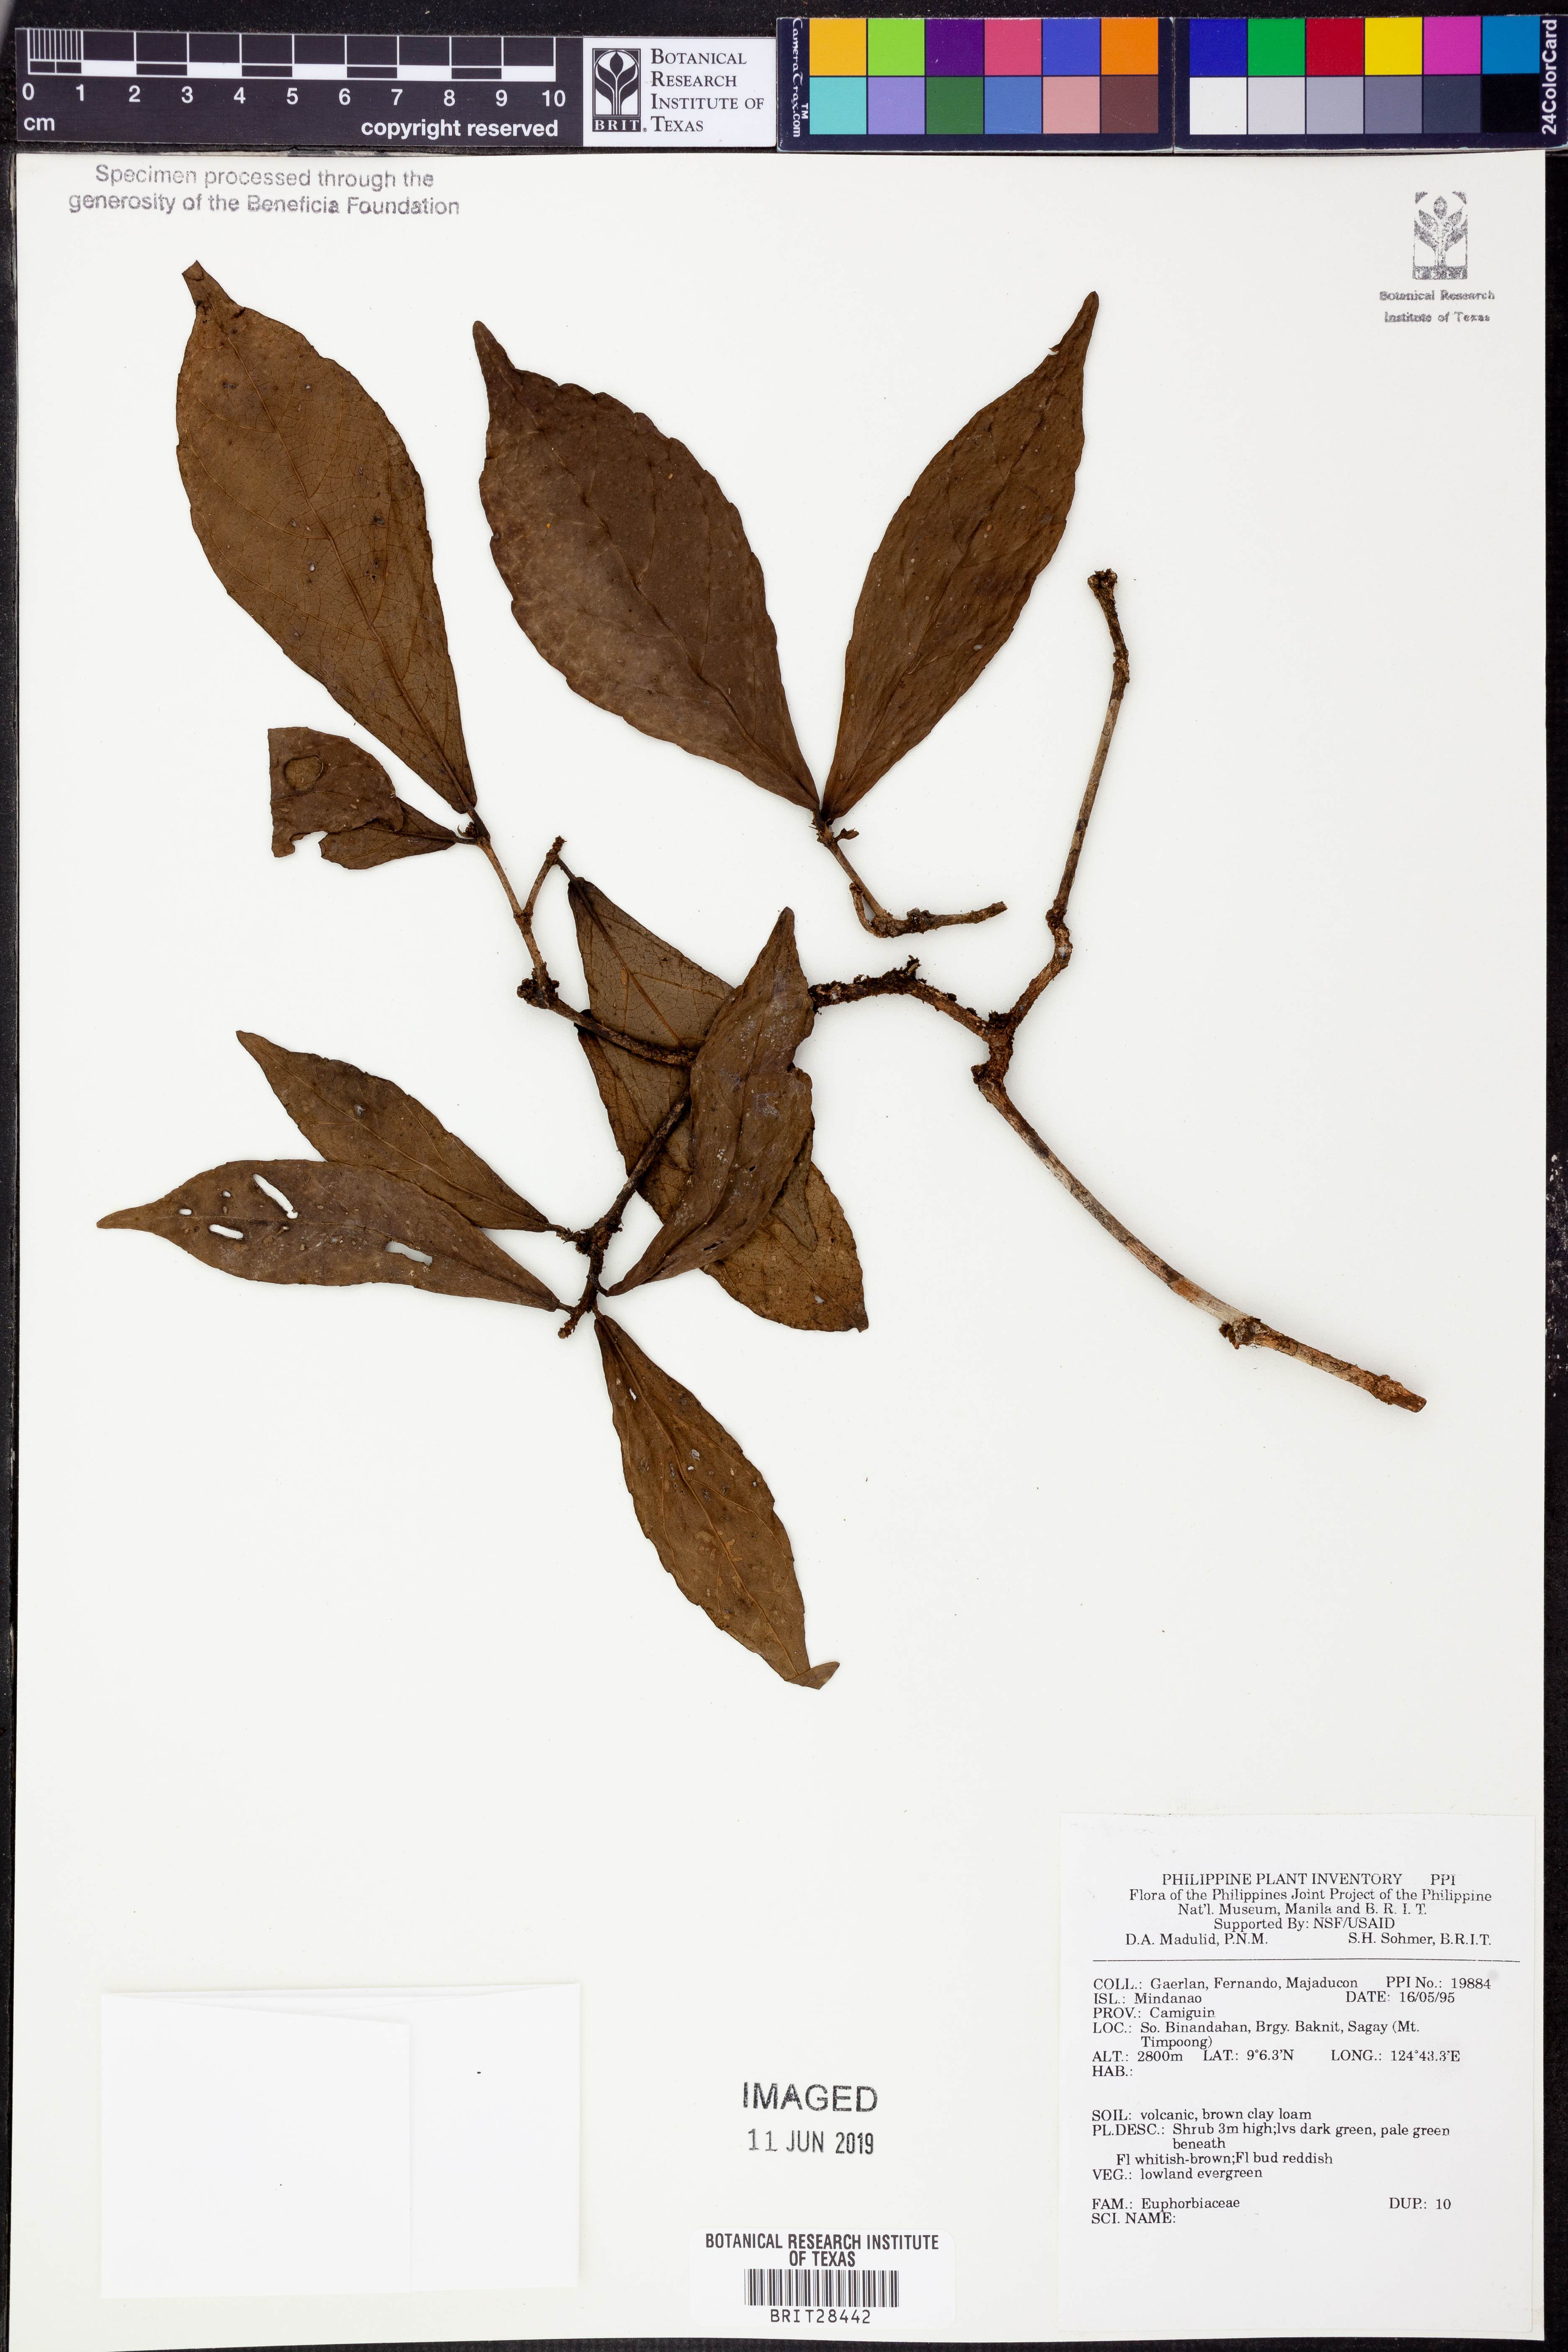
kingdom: Plantae
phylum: Tracheophyta
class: Magnoliopsida
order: Malpighiales
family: Euphorbiaceae
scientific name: Euphorbiaceae
